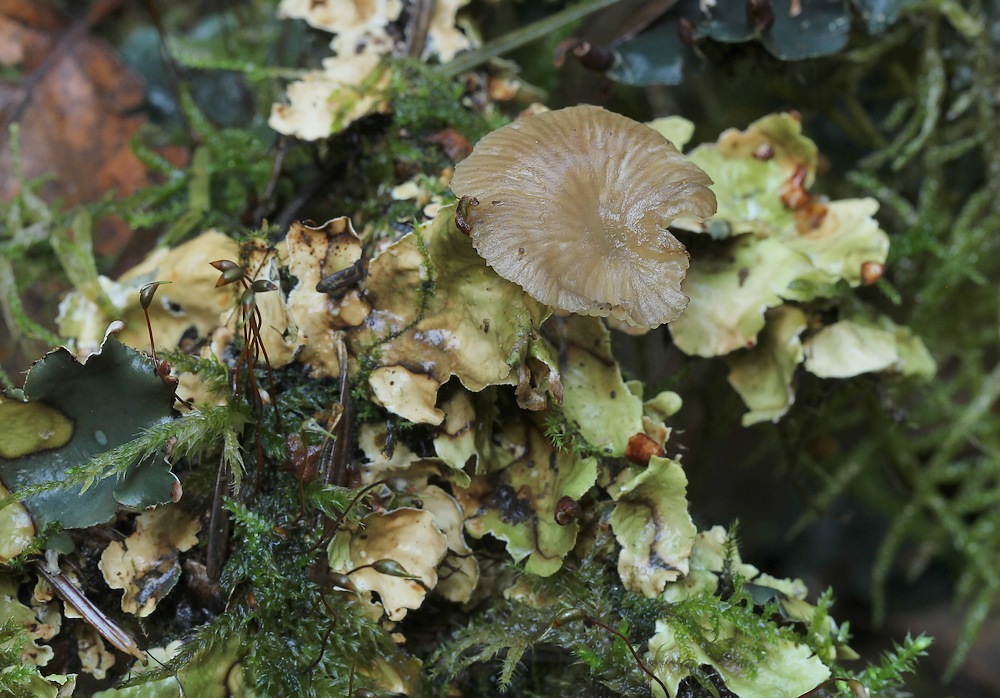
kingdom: Fungi
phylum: Basidiomycota
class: Agaricomycetes
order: Agaricales
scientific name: Agaricales
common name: champignonordenen
